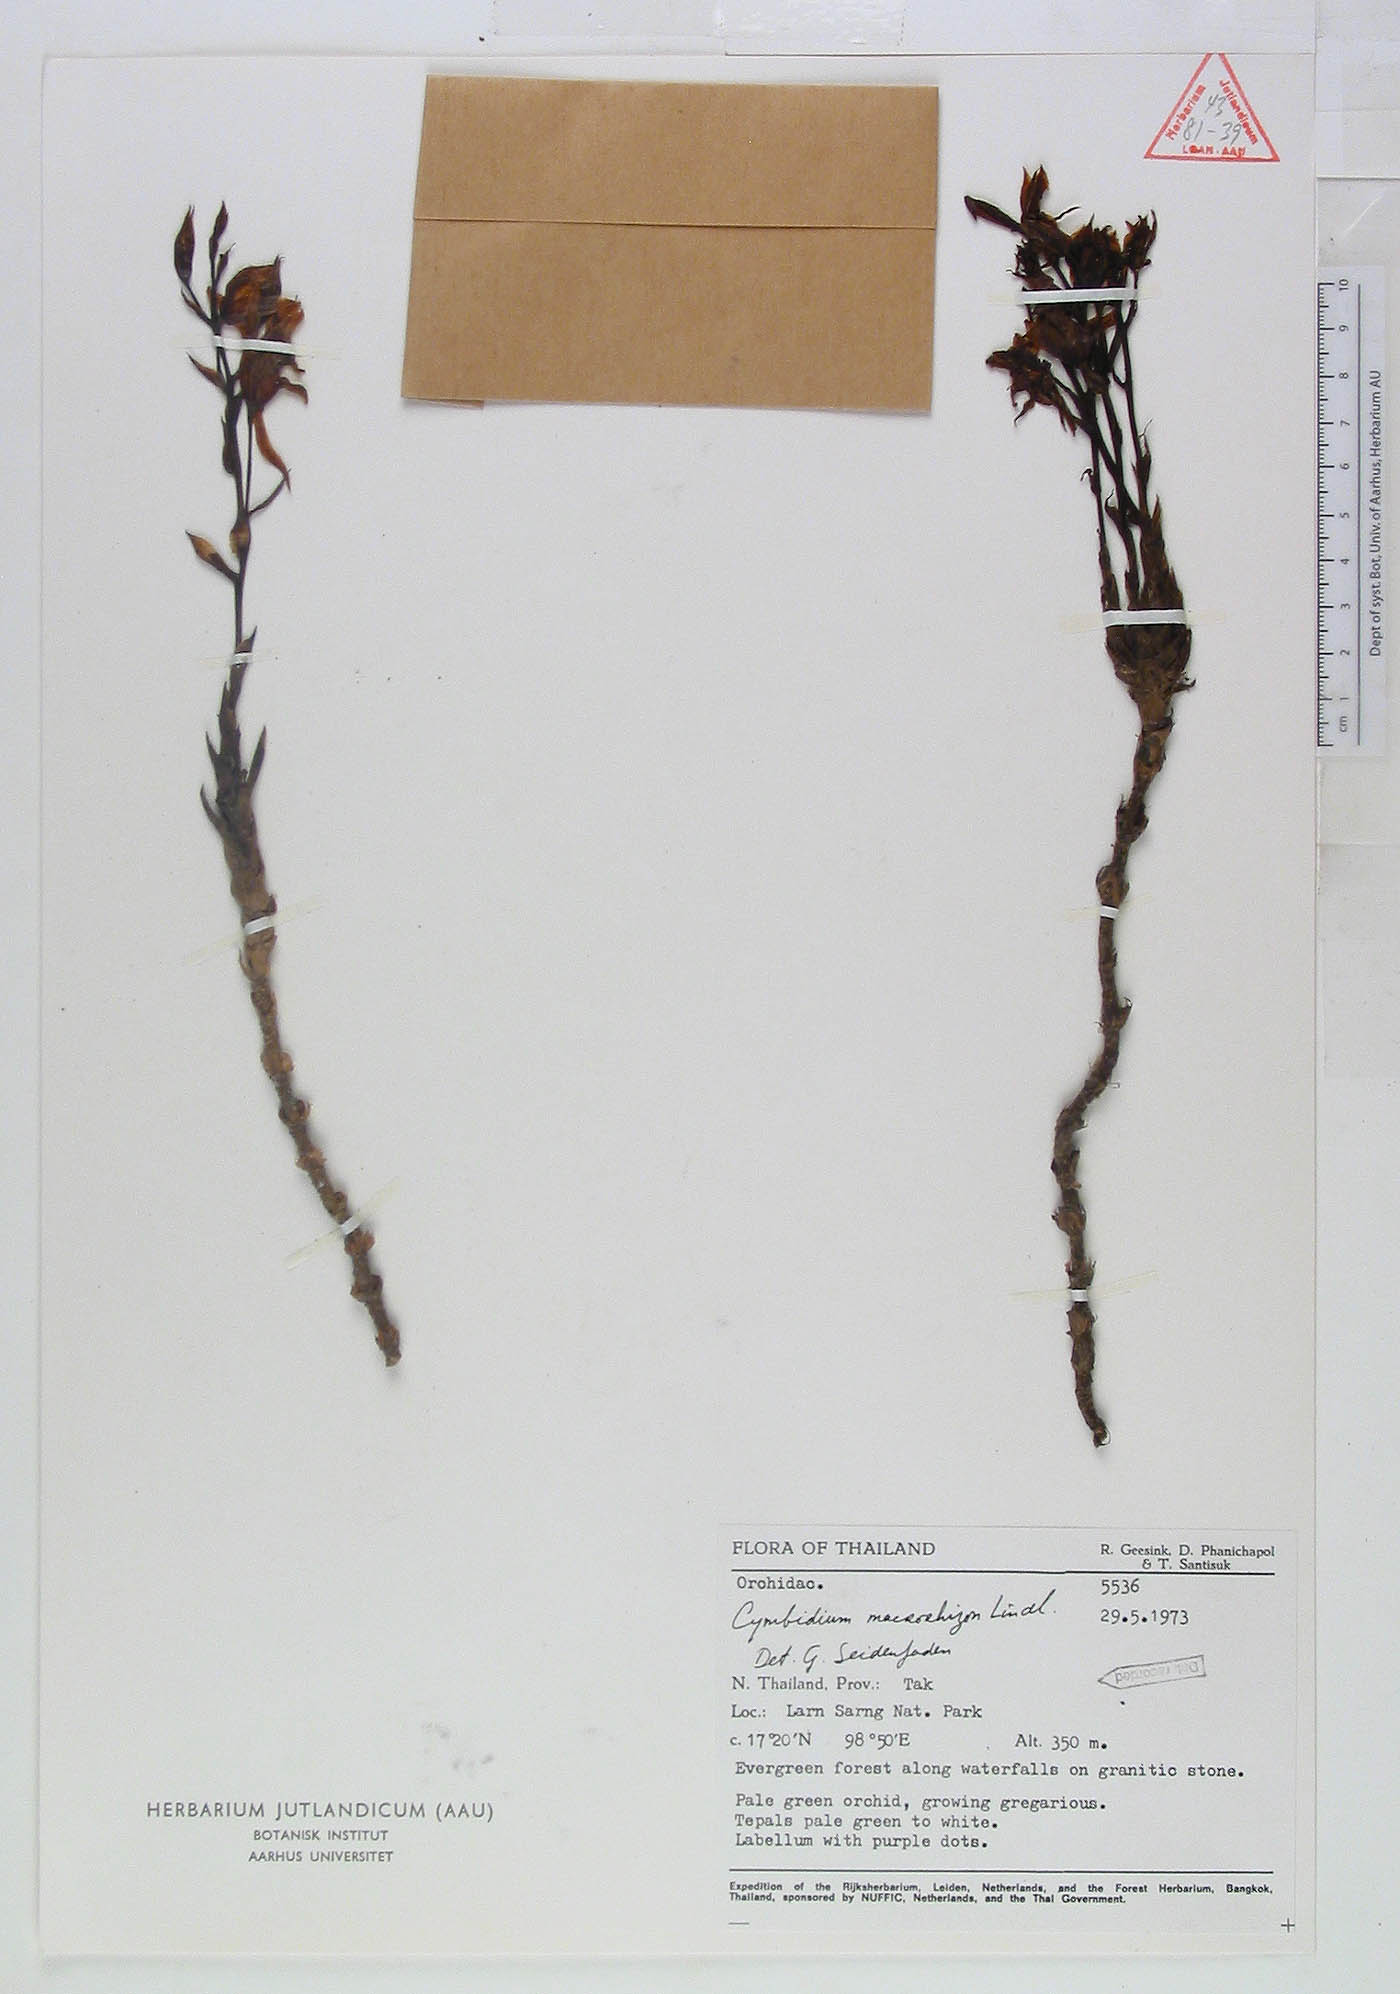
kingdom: Plantae
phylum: Tracheophyta
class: Liliopsida
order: Asparagales
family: Orchidaceae
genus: Cymbidium
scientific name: Cymbidium macrorhizon
